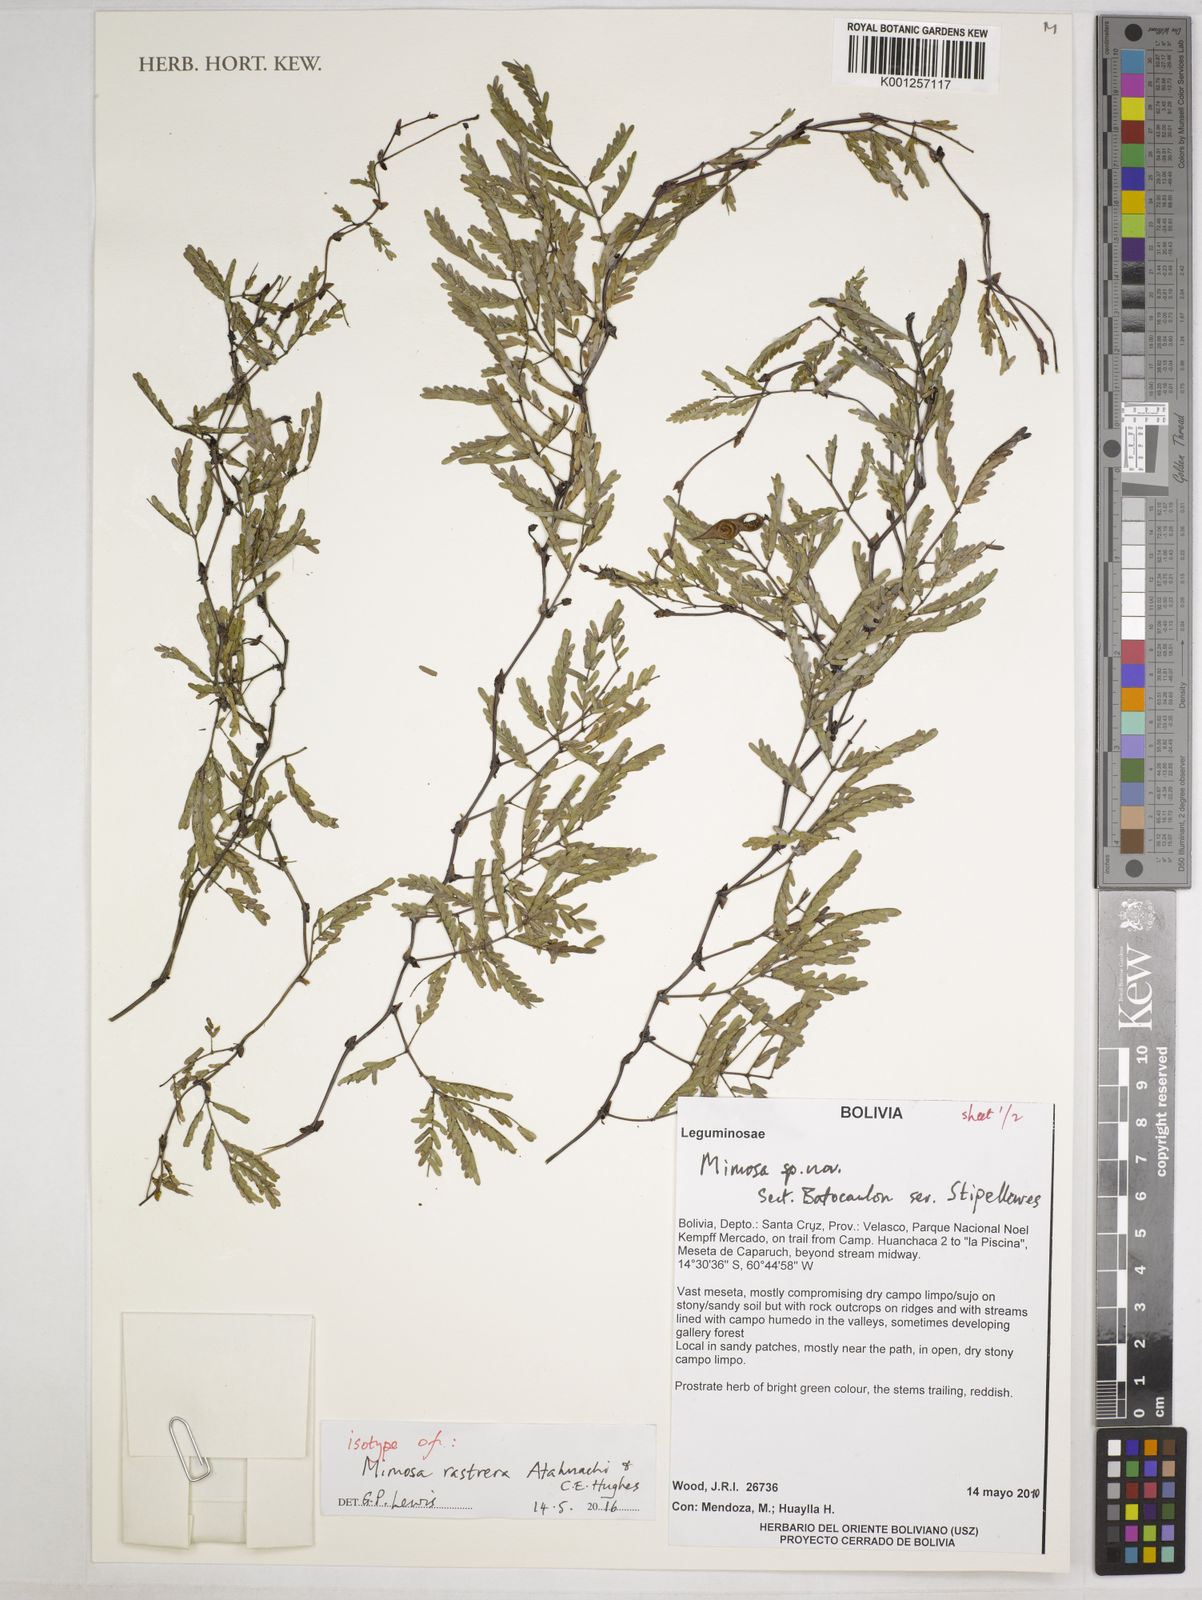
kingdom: Plantae
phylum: Tracheophyta
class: Magnoliopsida
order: Fabales
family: Fabaceae
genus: Mimosa
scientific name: Mimosa rastrera
